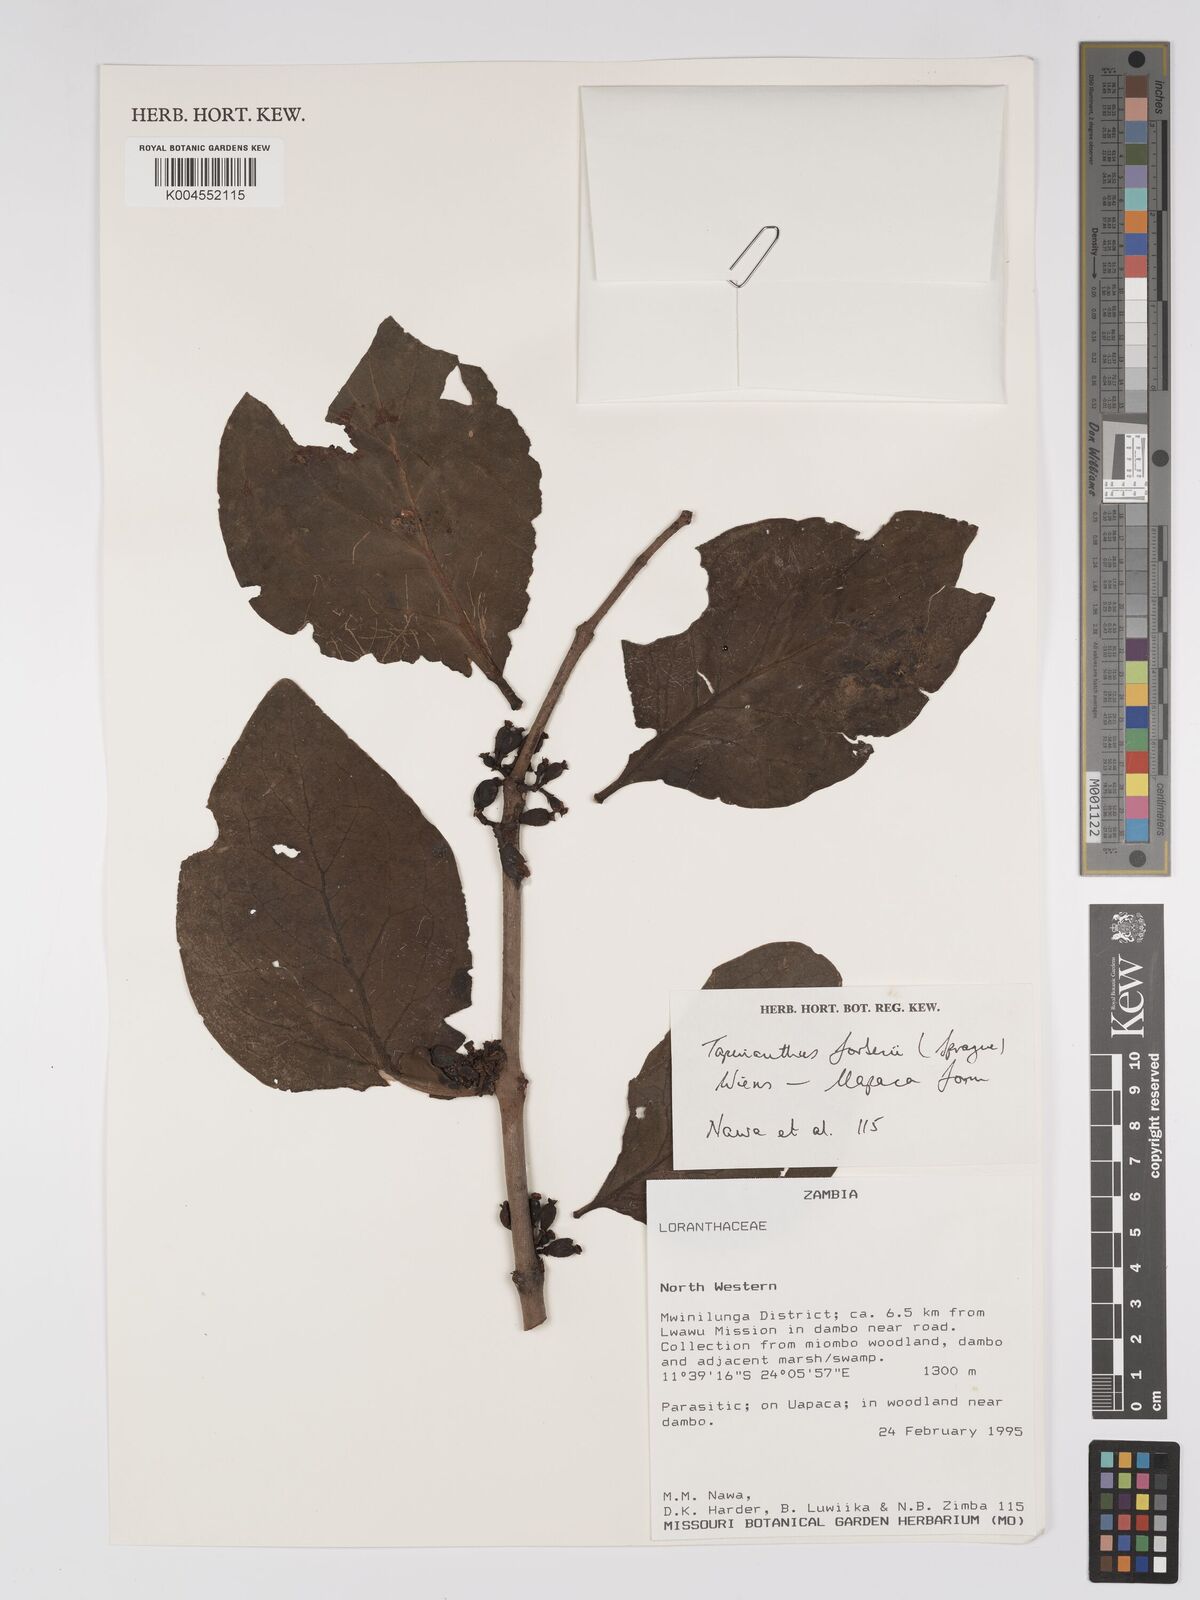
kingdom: Plantae
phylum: Tracheophyta
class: Magnoliopsida
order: Santalales
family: Loranthaceae
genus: Tapinanthus
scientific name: Tapinanthus forbesii
